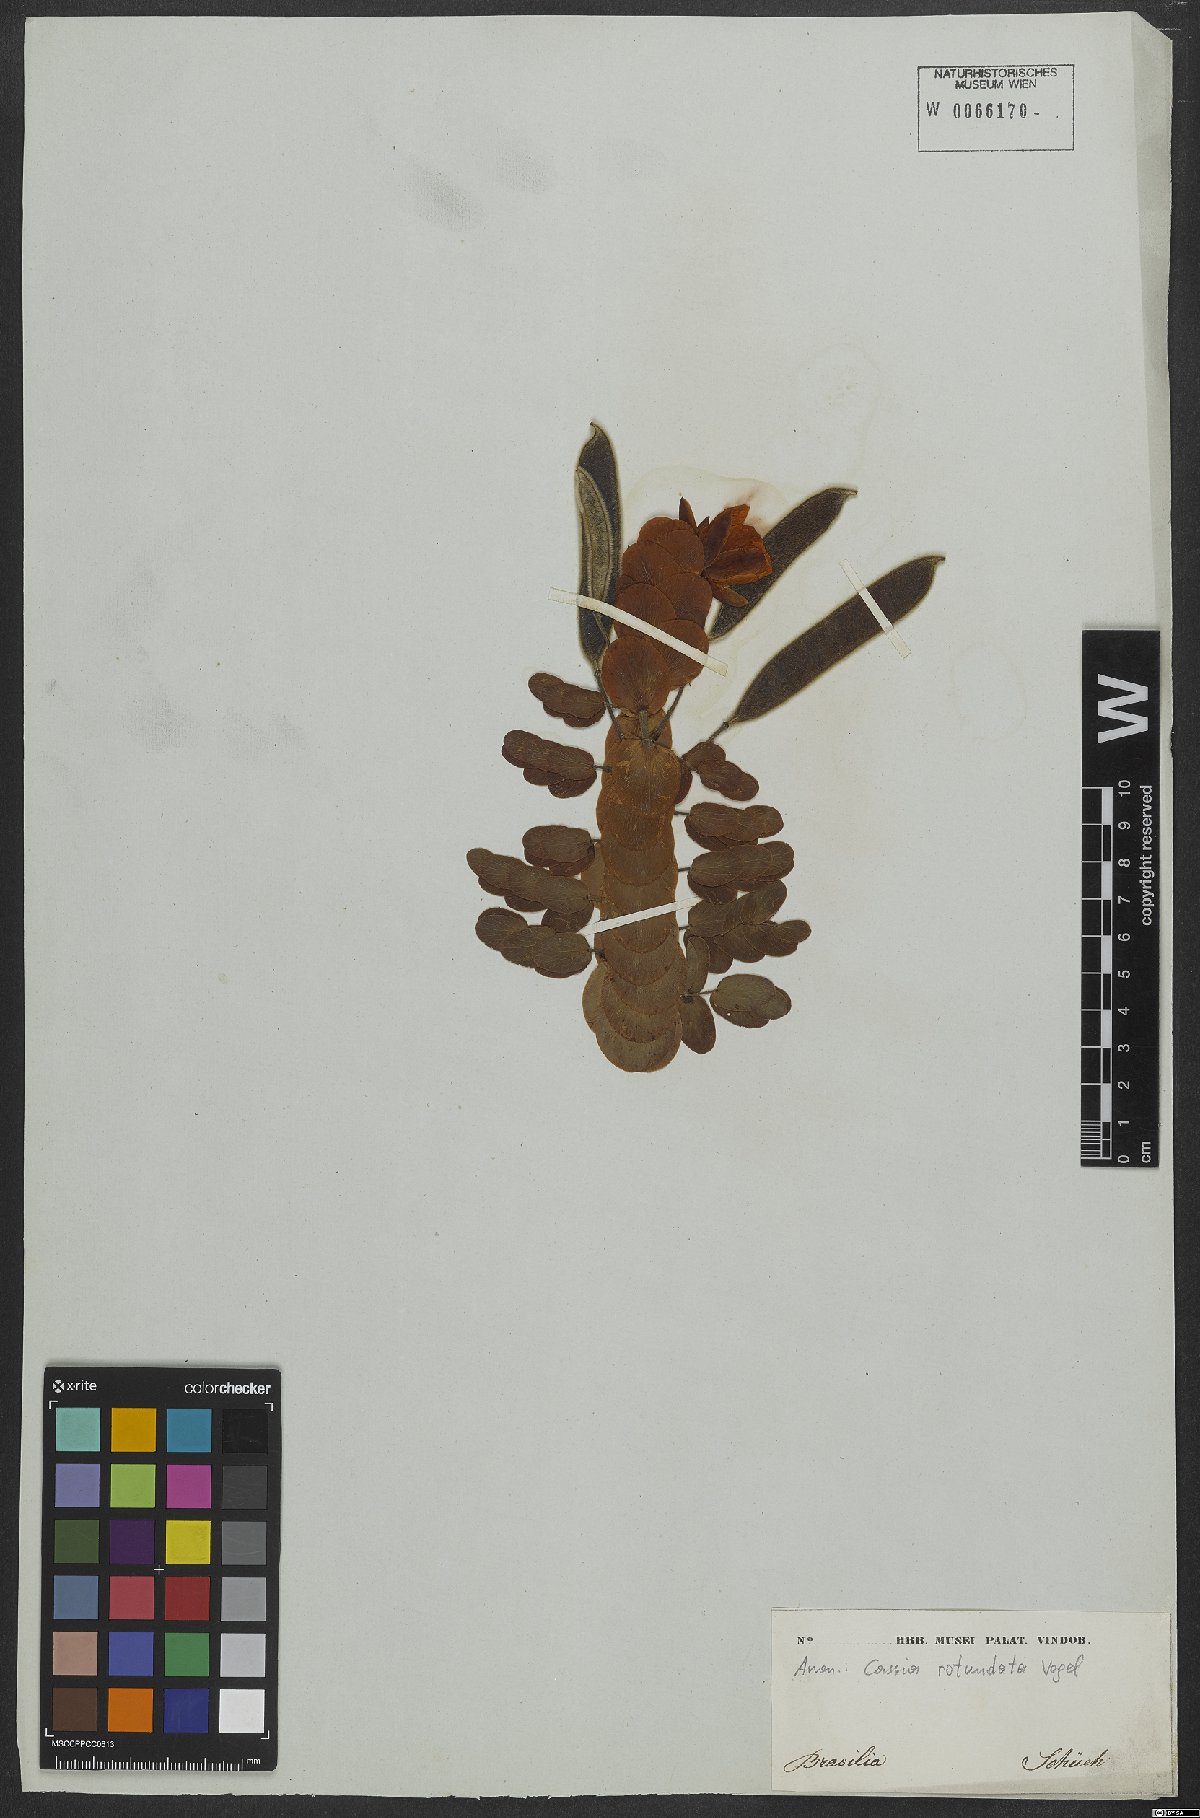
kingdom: Plantae
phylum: Tracheophyta
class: Magnoliopsida
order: Fabales
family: Fabaceae
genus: Chamaecrista
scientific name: Chamaecrista rotundata
